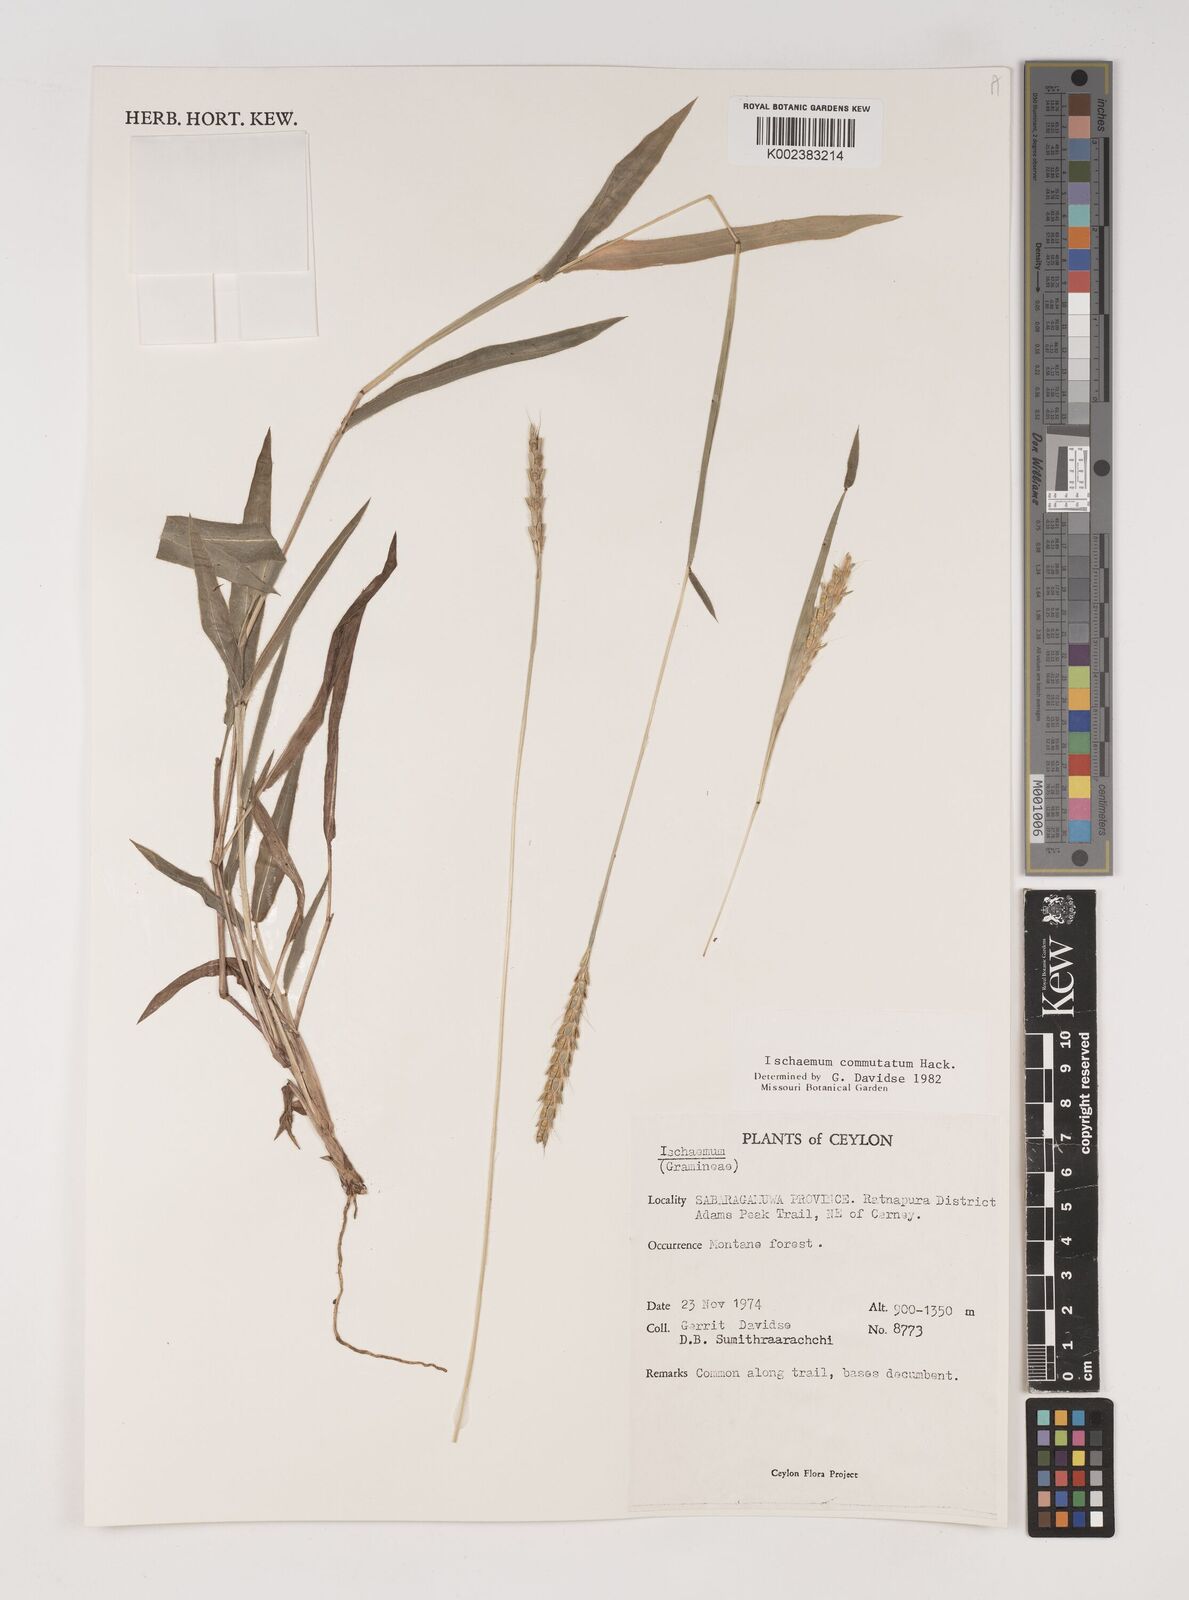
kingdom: Plantae
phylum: Tracheophyta
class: Liliopsida
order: Poales
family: Poaceae
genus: Ischaemum
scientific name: Ischaemum commutatum
